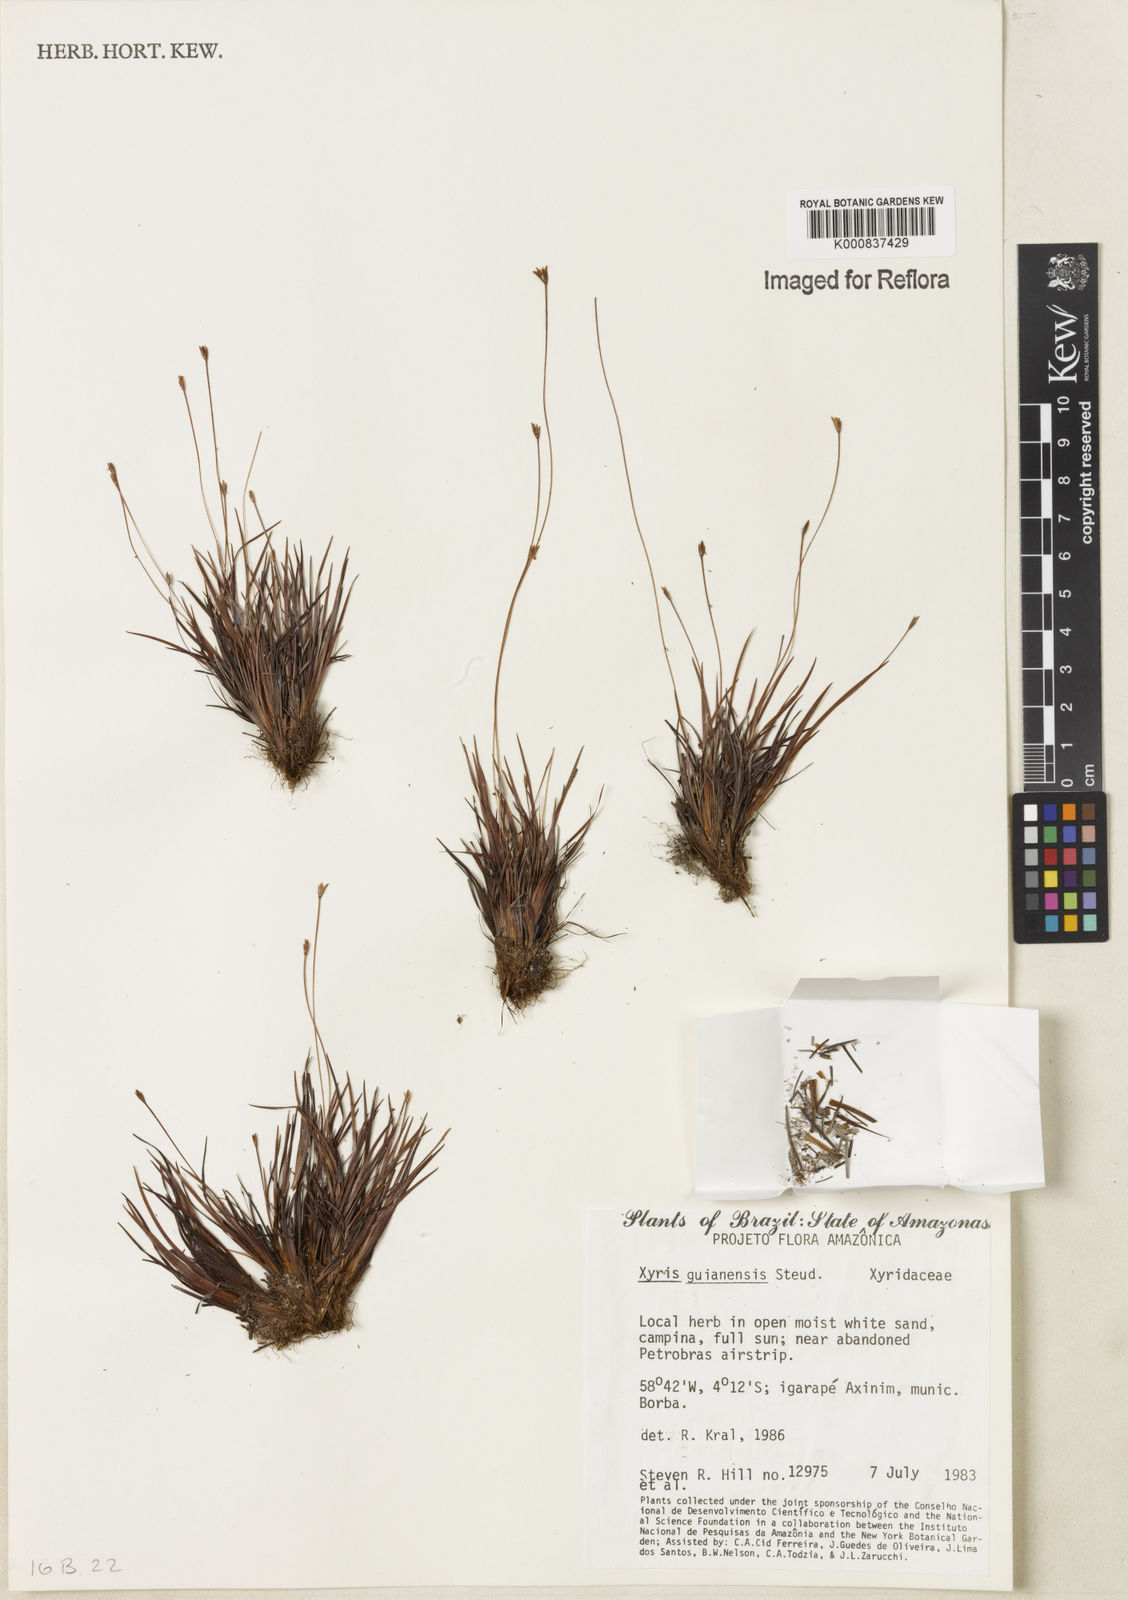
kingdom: Plantae
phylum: Tracheophyta
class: Liliopsida
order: Poales
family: Xyridaceae
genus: Xyris
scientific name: Xyris guianensis
